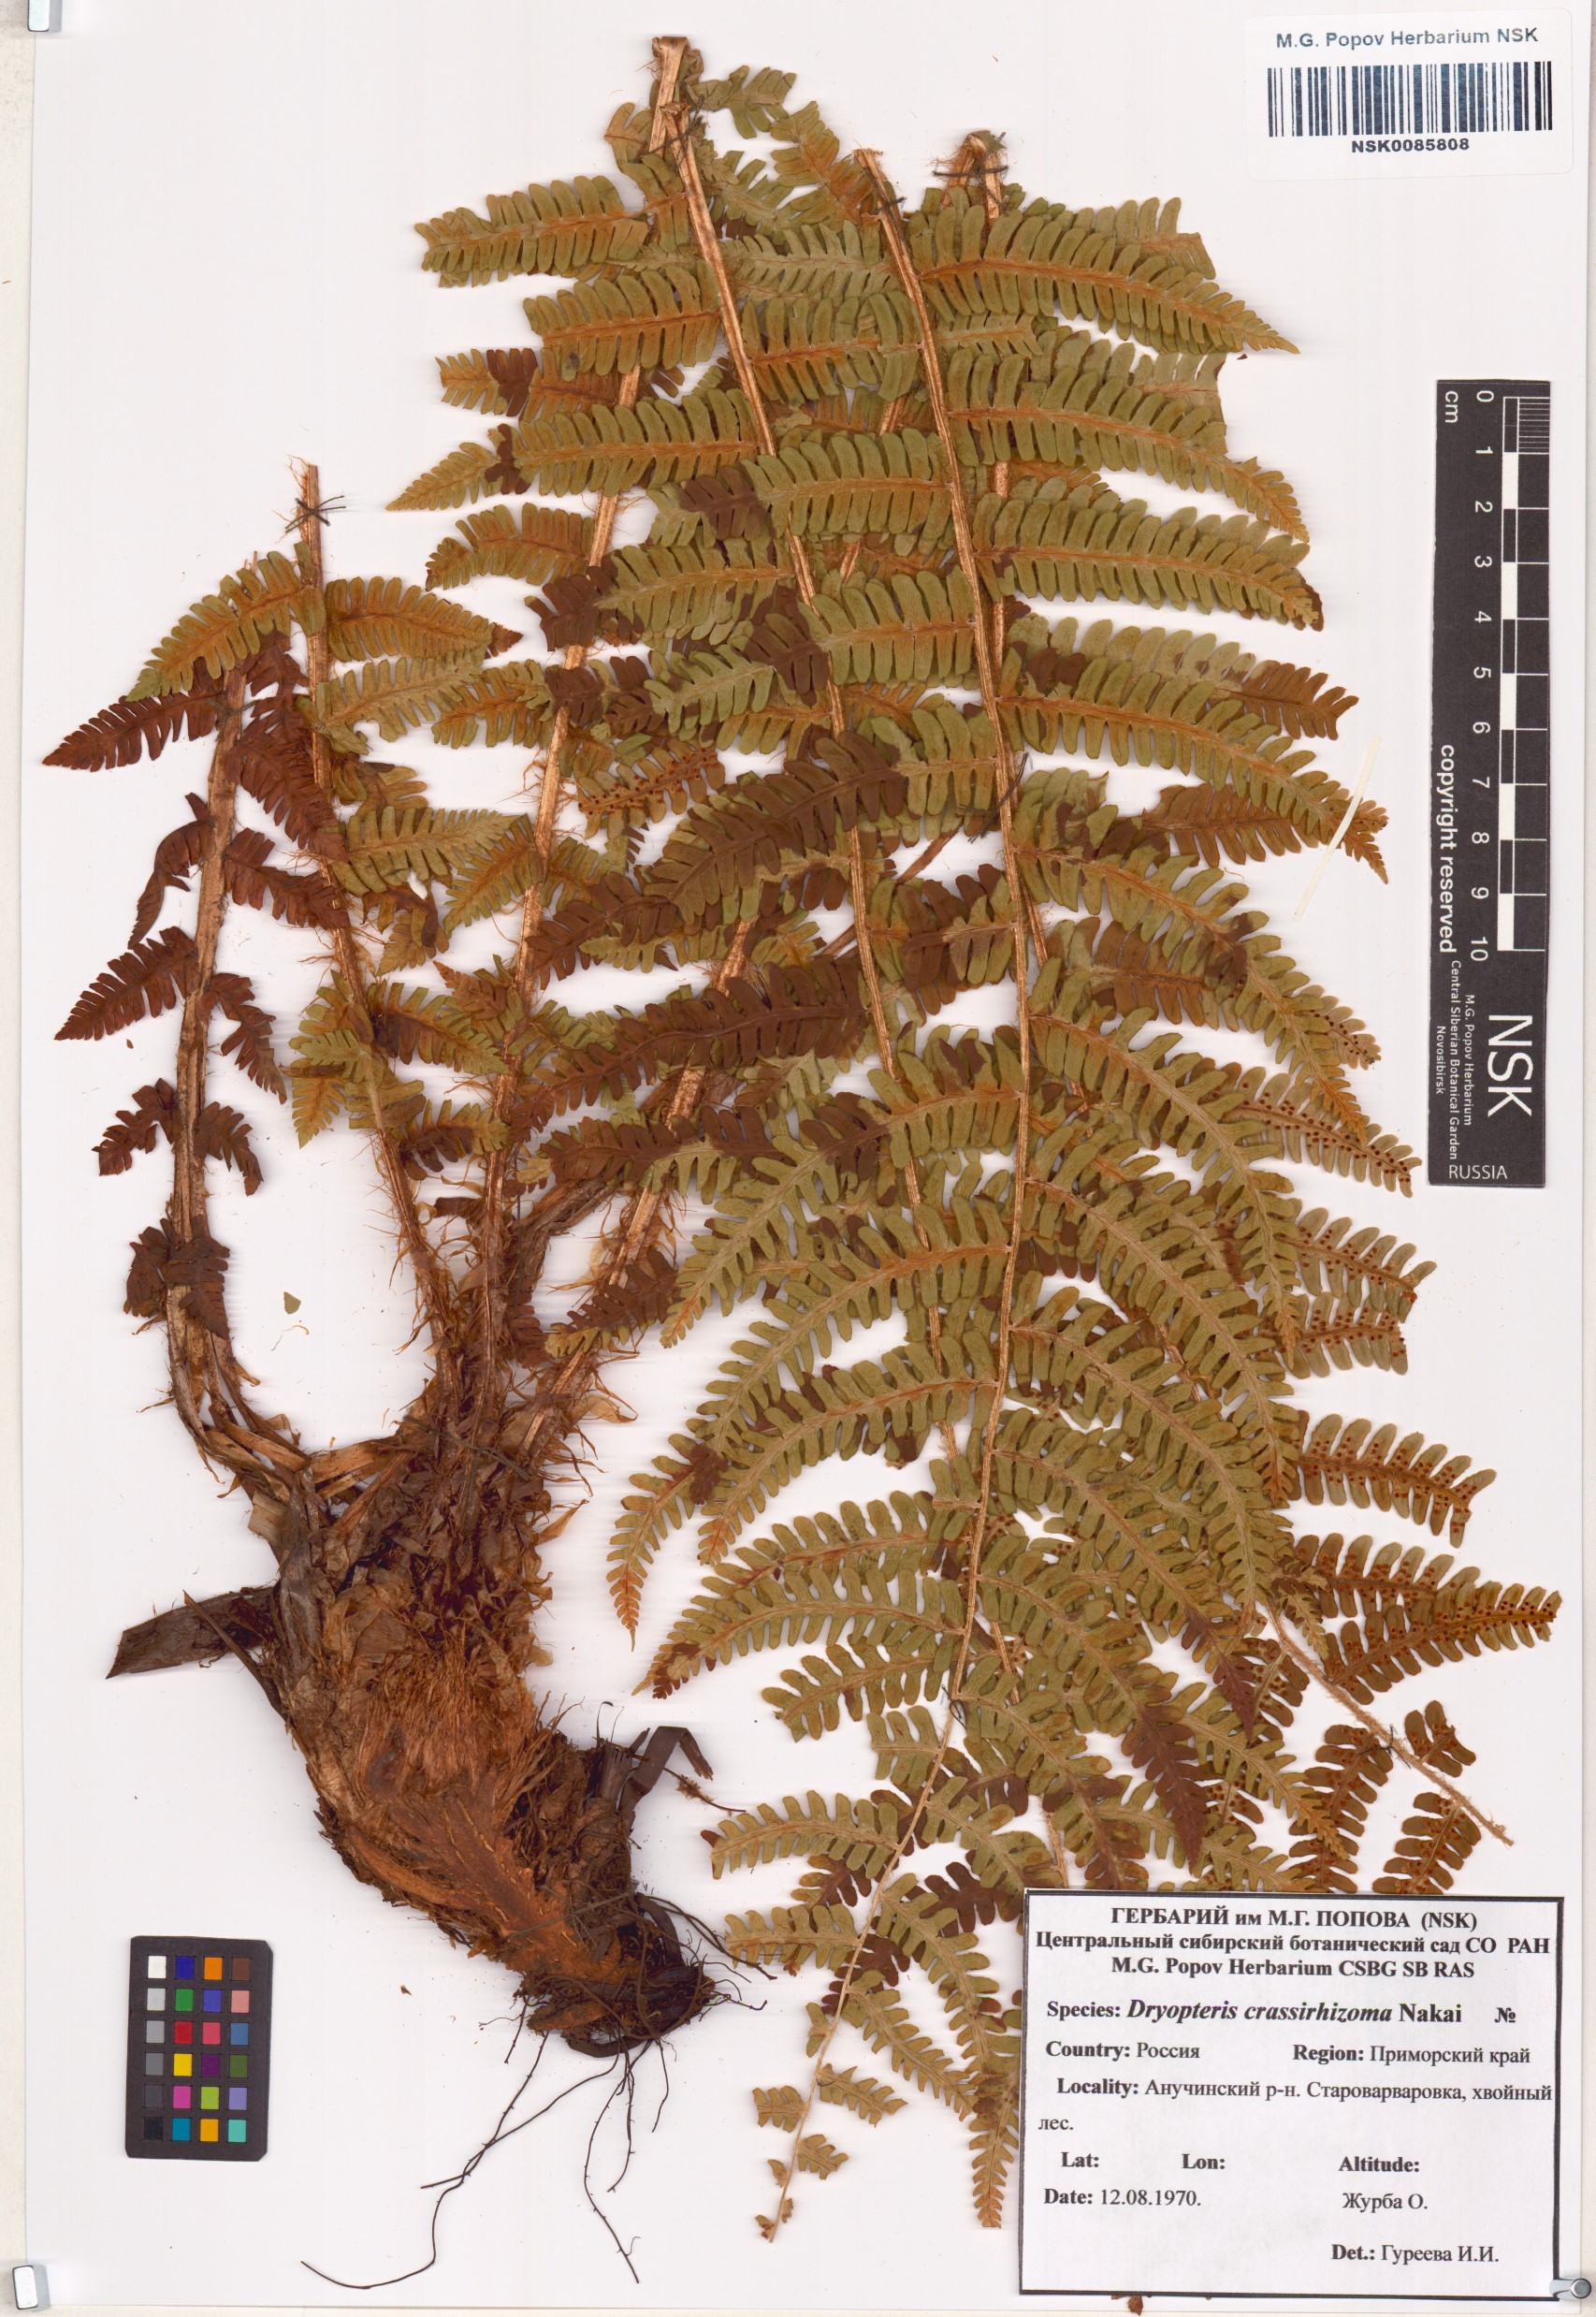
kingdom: Plantae
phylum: Tracheophyta
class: Polypodiopsida
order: Polypodiales
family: Dryopteridaceae
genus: Dryopteris
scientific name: Dryopteris crassirhizoma
